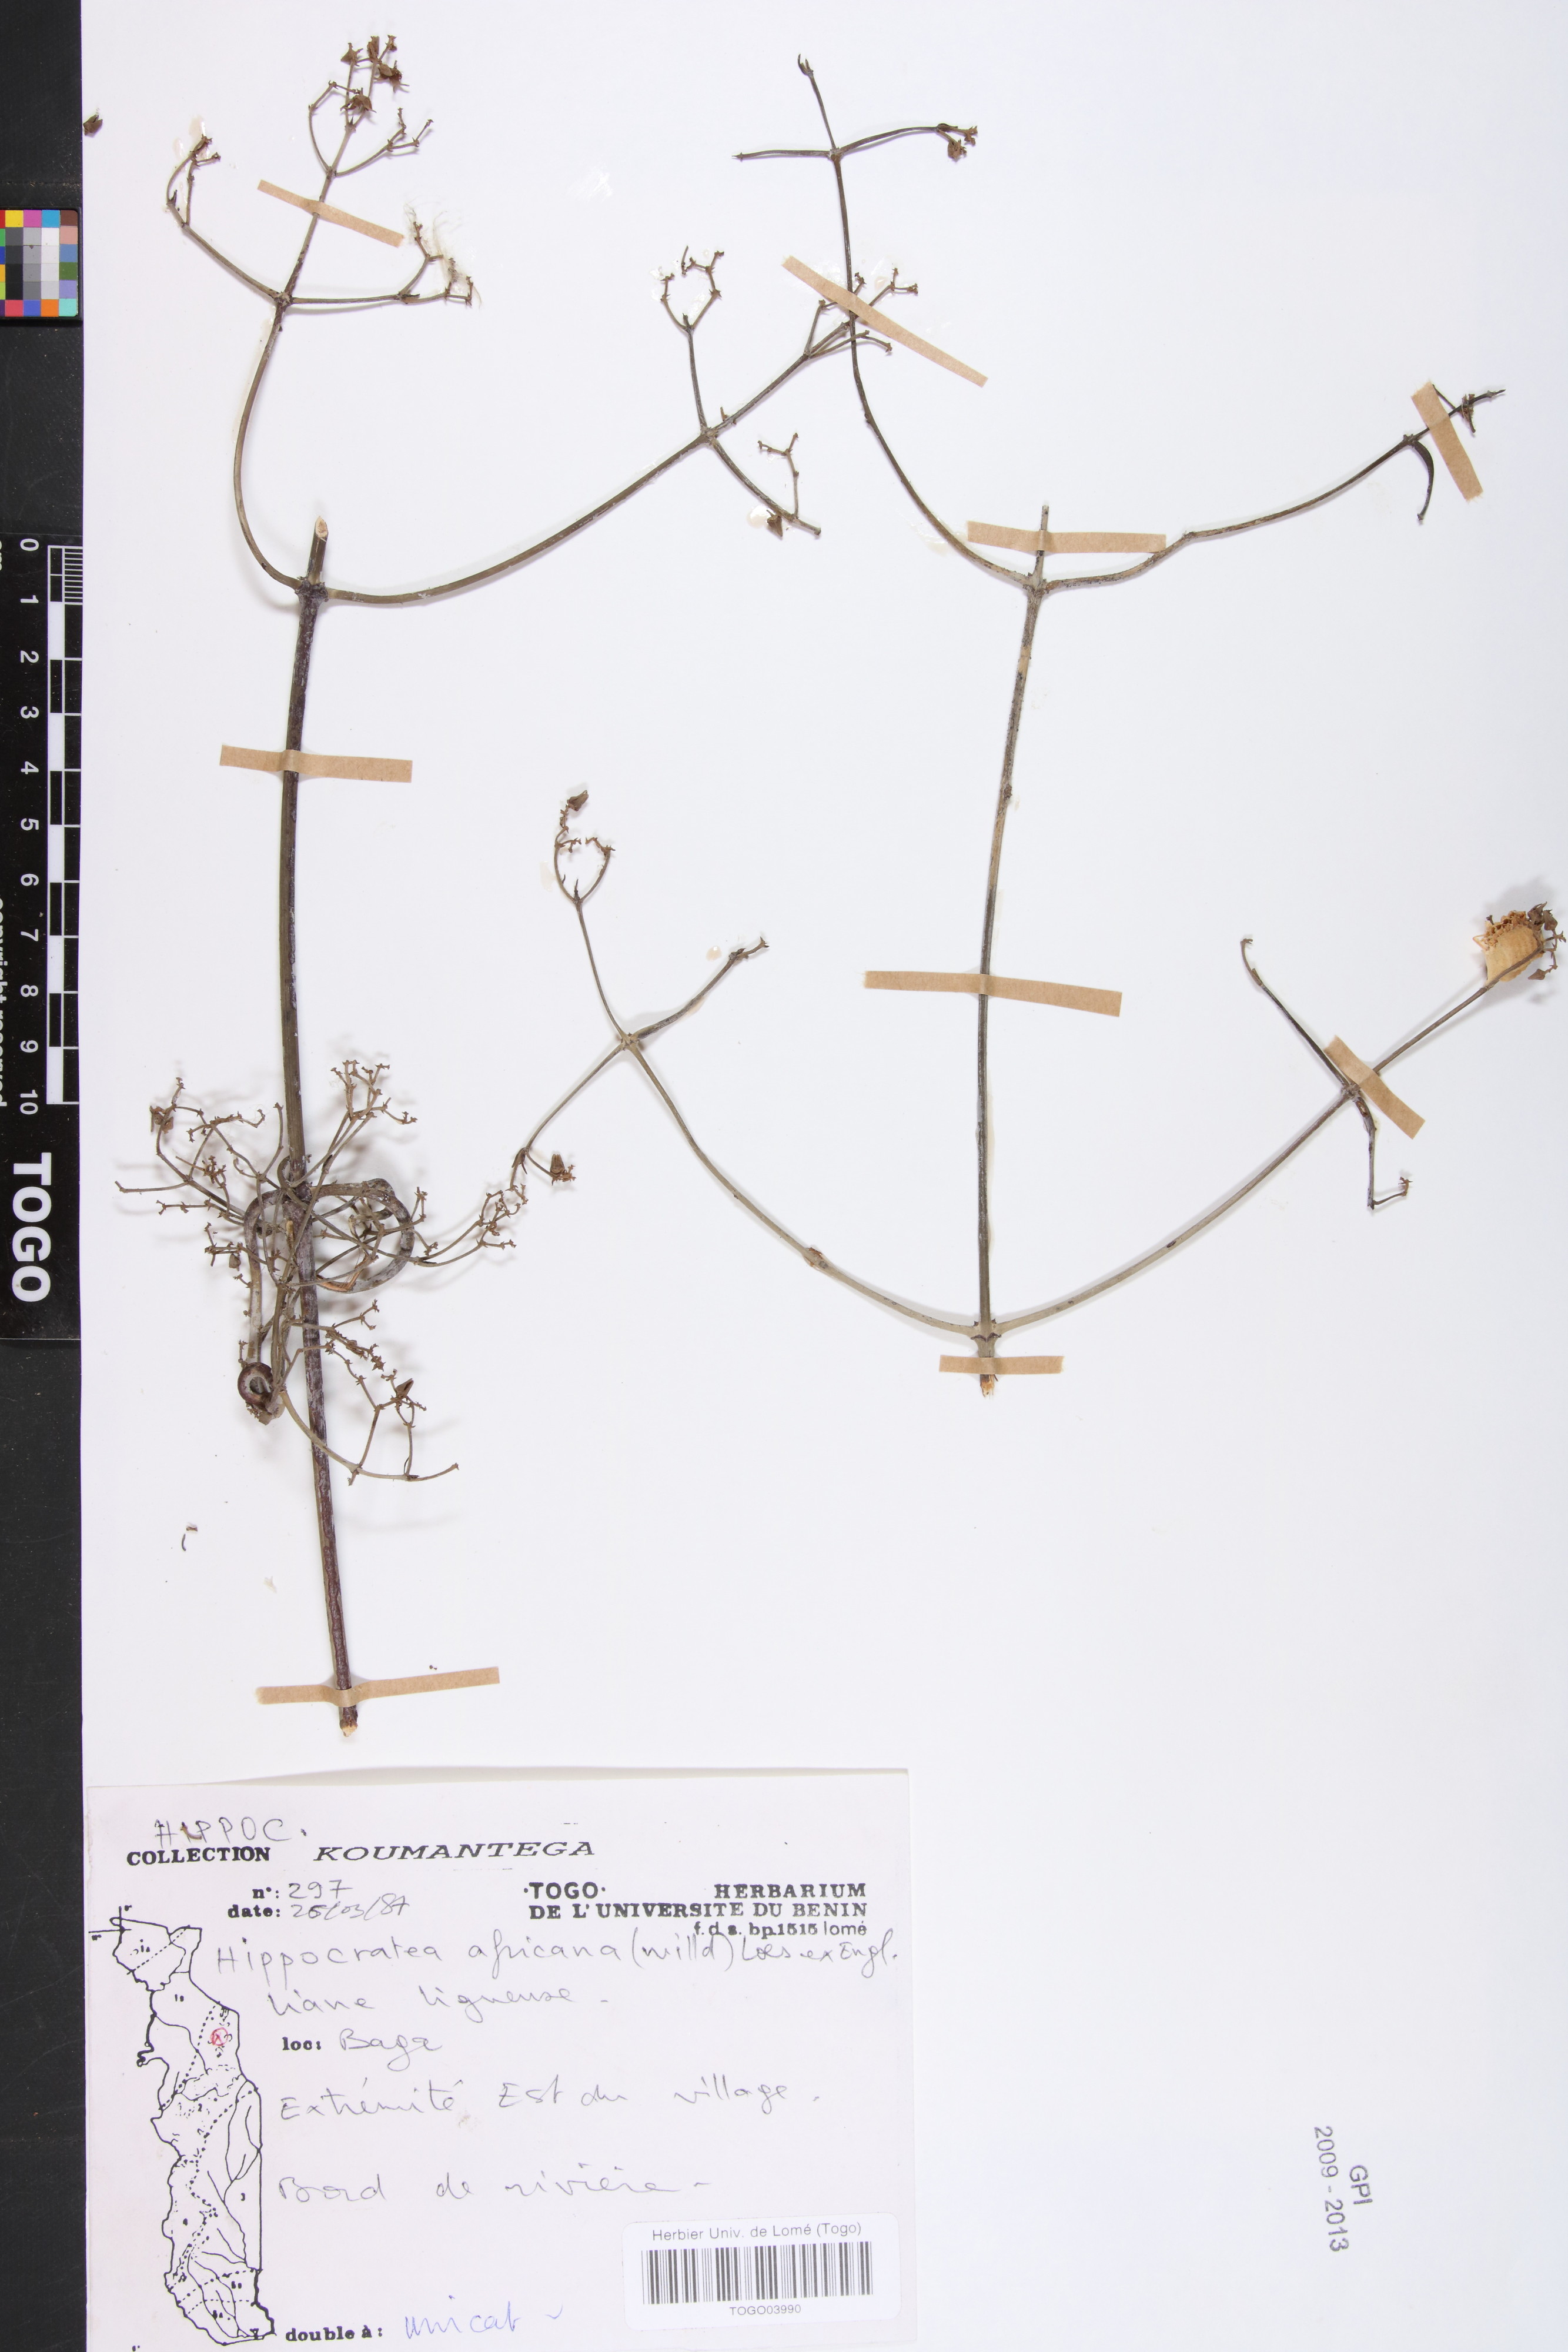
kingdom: Plantae
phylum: Tracheophyta
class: Magnoliopsida
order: Celastrales
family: Celastraceae
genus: Loeseneriella
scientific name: Loeseneriella africana
